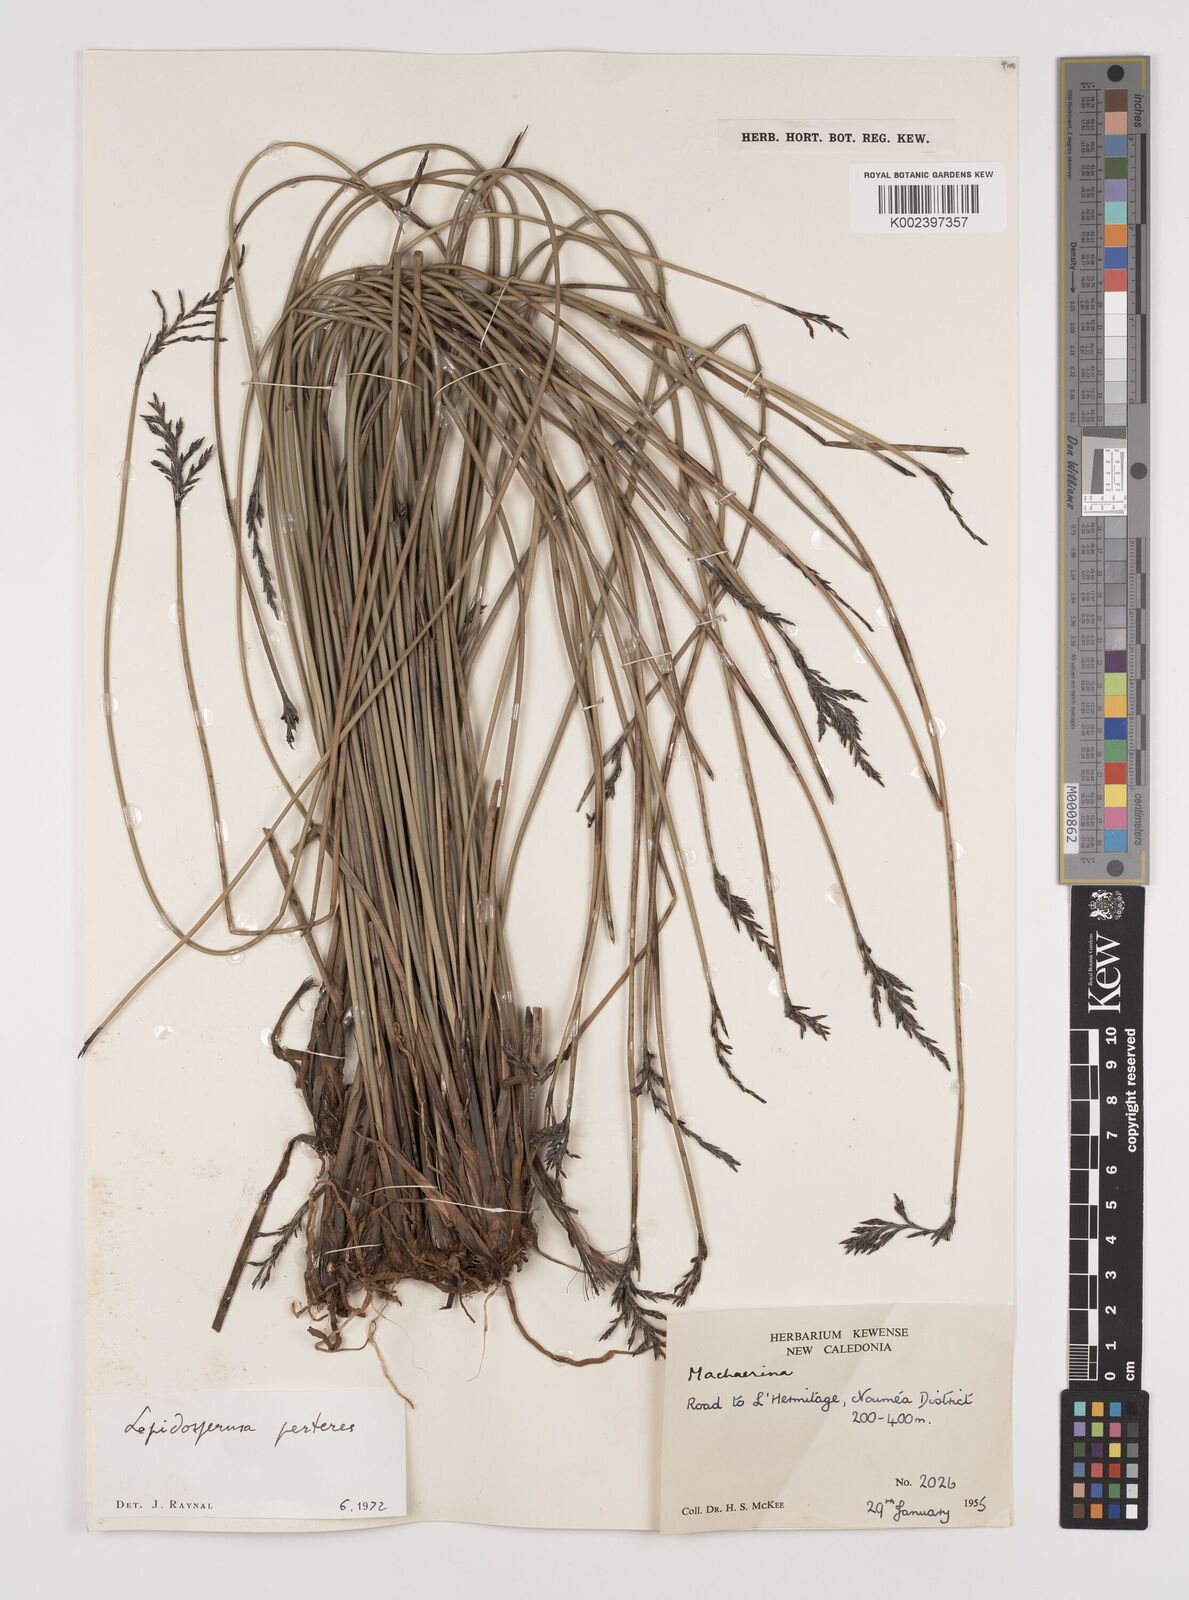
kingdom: Plantae
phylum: Tracheophyta
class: Liliopsida
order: Poales
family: Cyperaceae
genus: Lepidosperma
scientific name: Lepidosperma perteres
